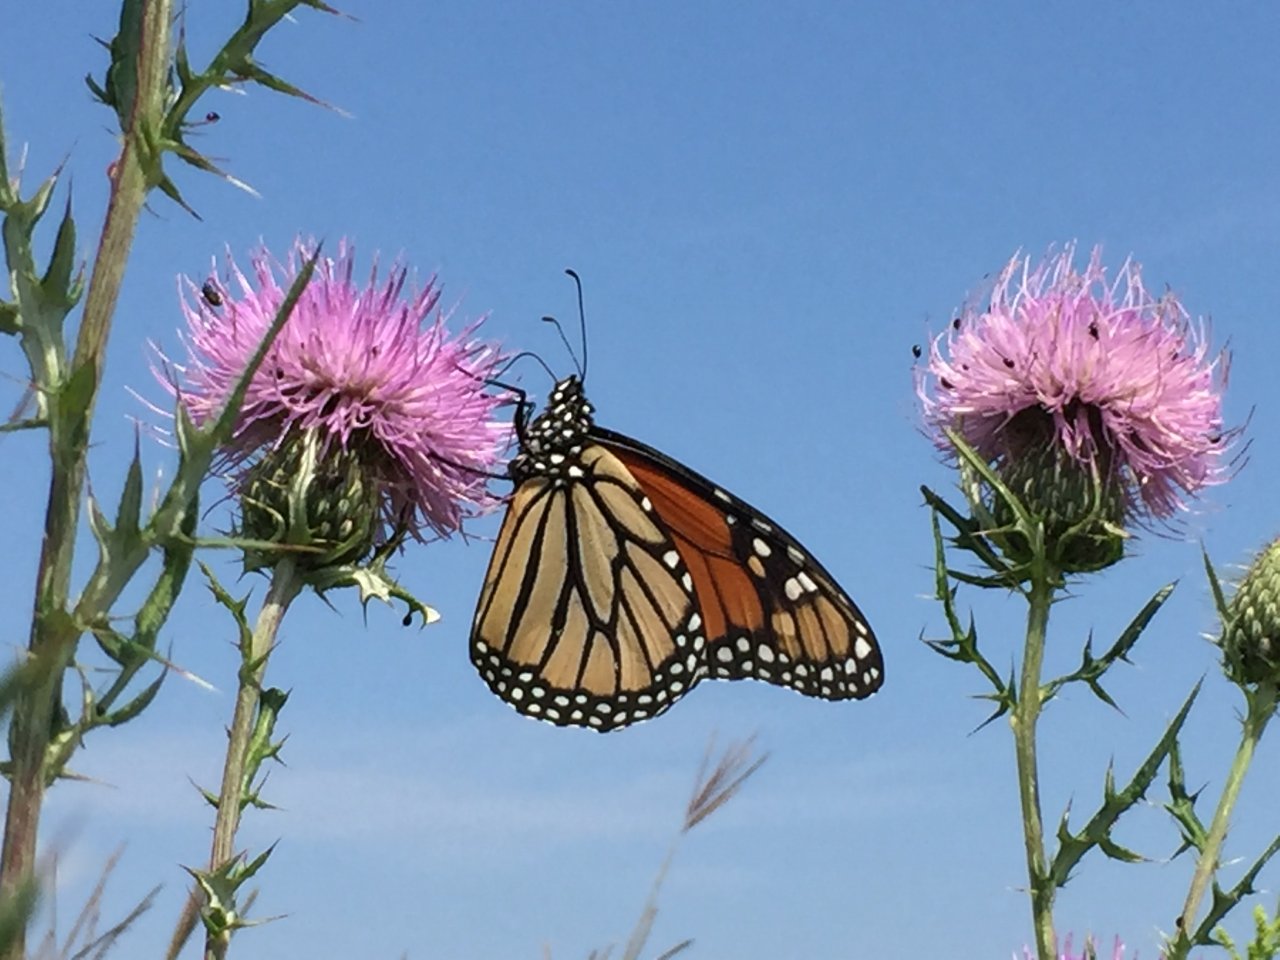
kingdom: Animalia
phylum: Arthropoda
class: Insecta
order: Lepidoptera
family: Nymphalidae
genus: Danaus
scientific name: Danaus plexippus
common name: Monarch
